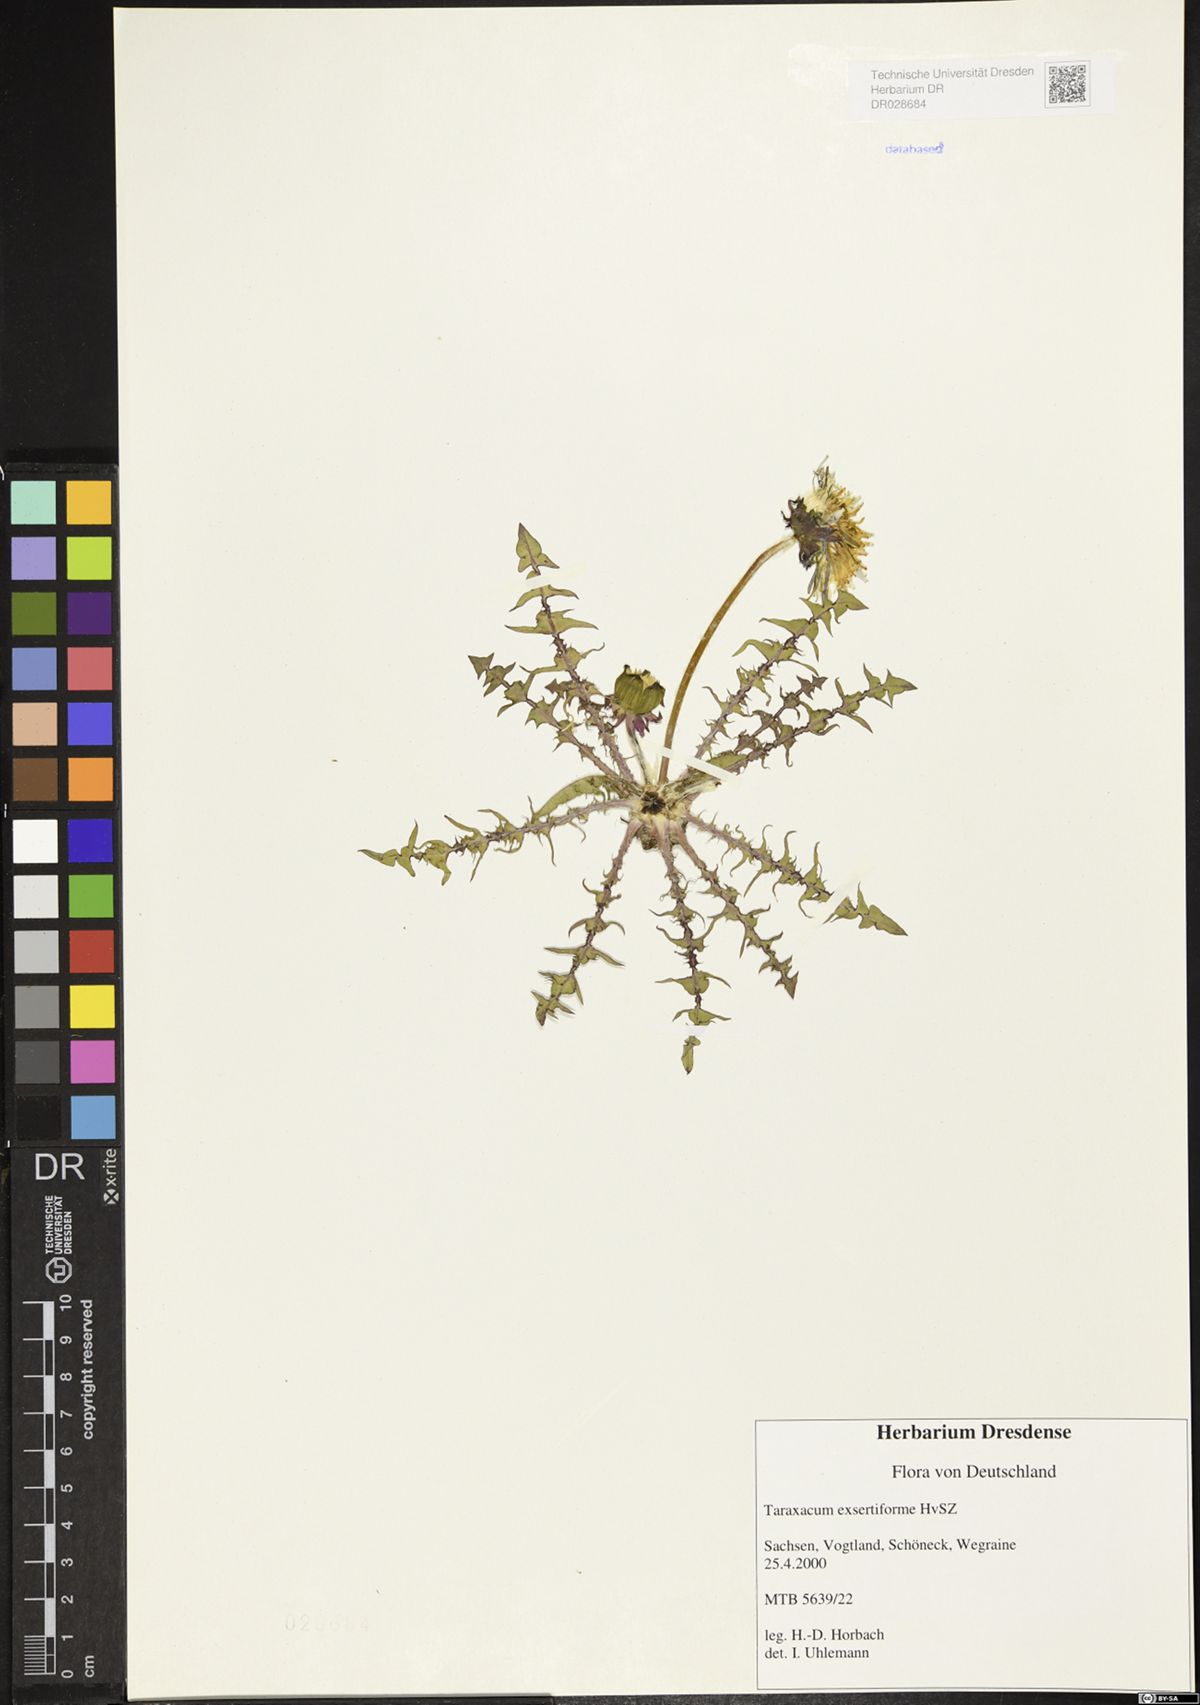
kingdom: Plantae
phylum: Tracheophyta
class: Magnoliopsida
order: Asterales
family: Asteraceae
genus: Taraxacum
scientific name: Taraxacum exsertiforme
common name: Erect-bracted dandelion
